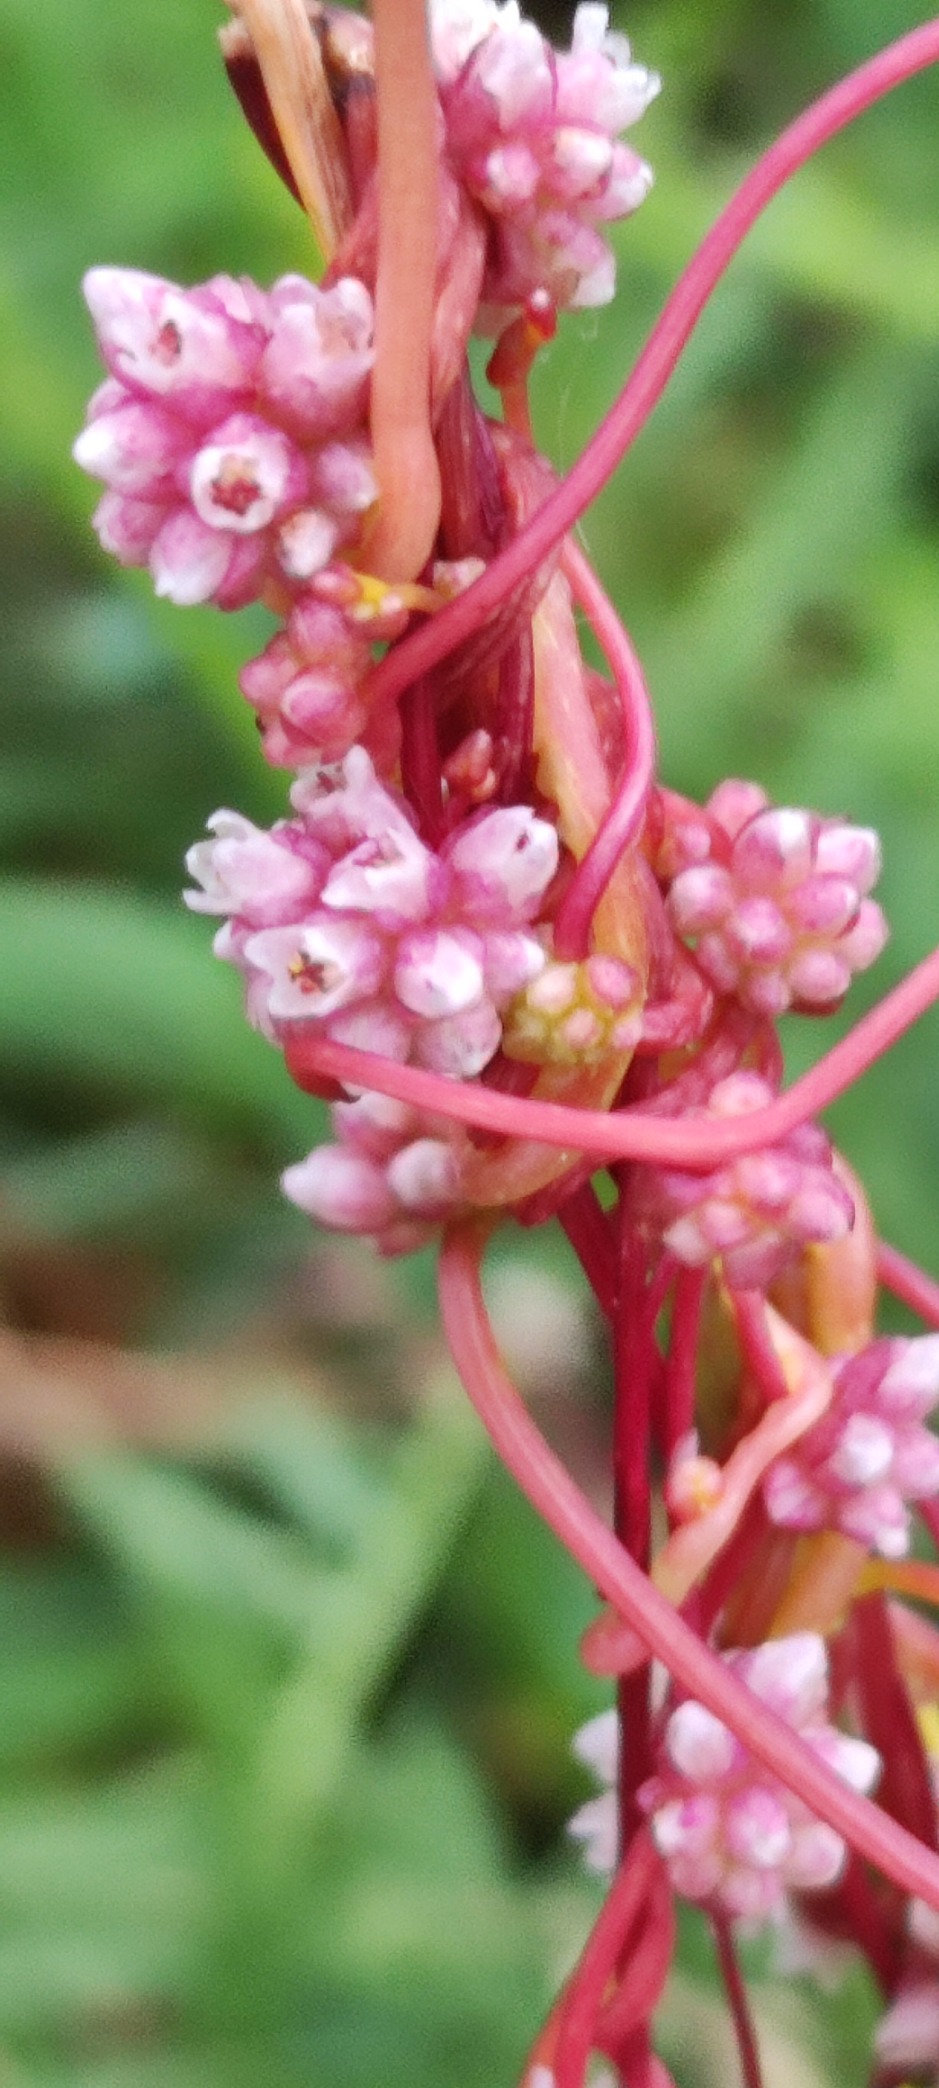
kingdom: Plantae
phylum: Tracheophyta
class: Magnoliopsida
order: Solanales
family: Convolvulaceae
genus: Cuscuta
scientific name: Cuscuta europaea
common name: Nælde-silke
